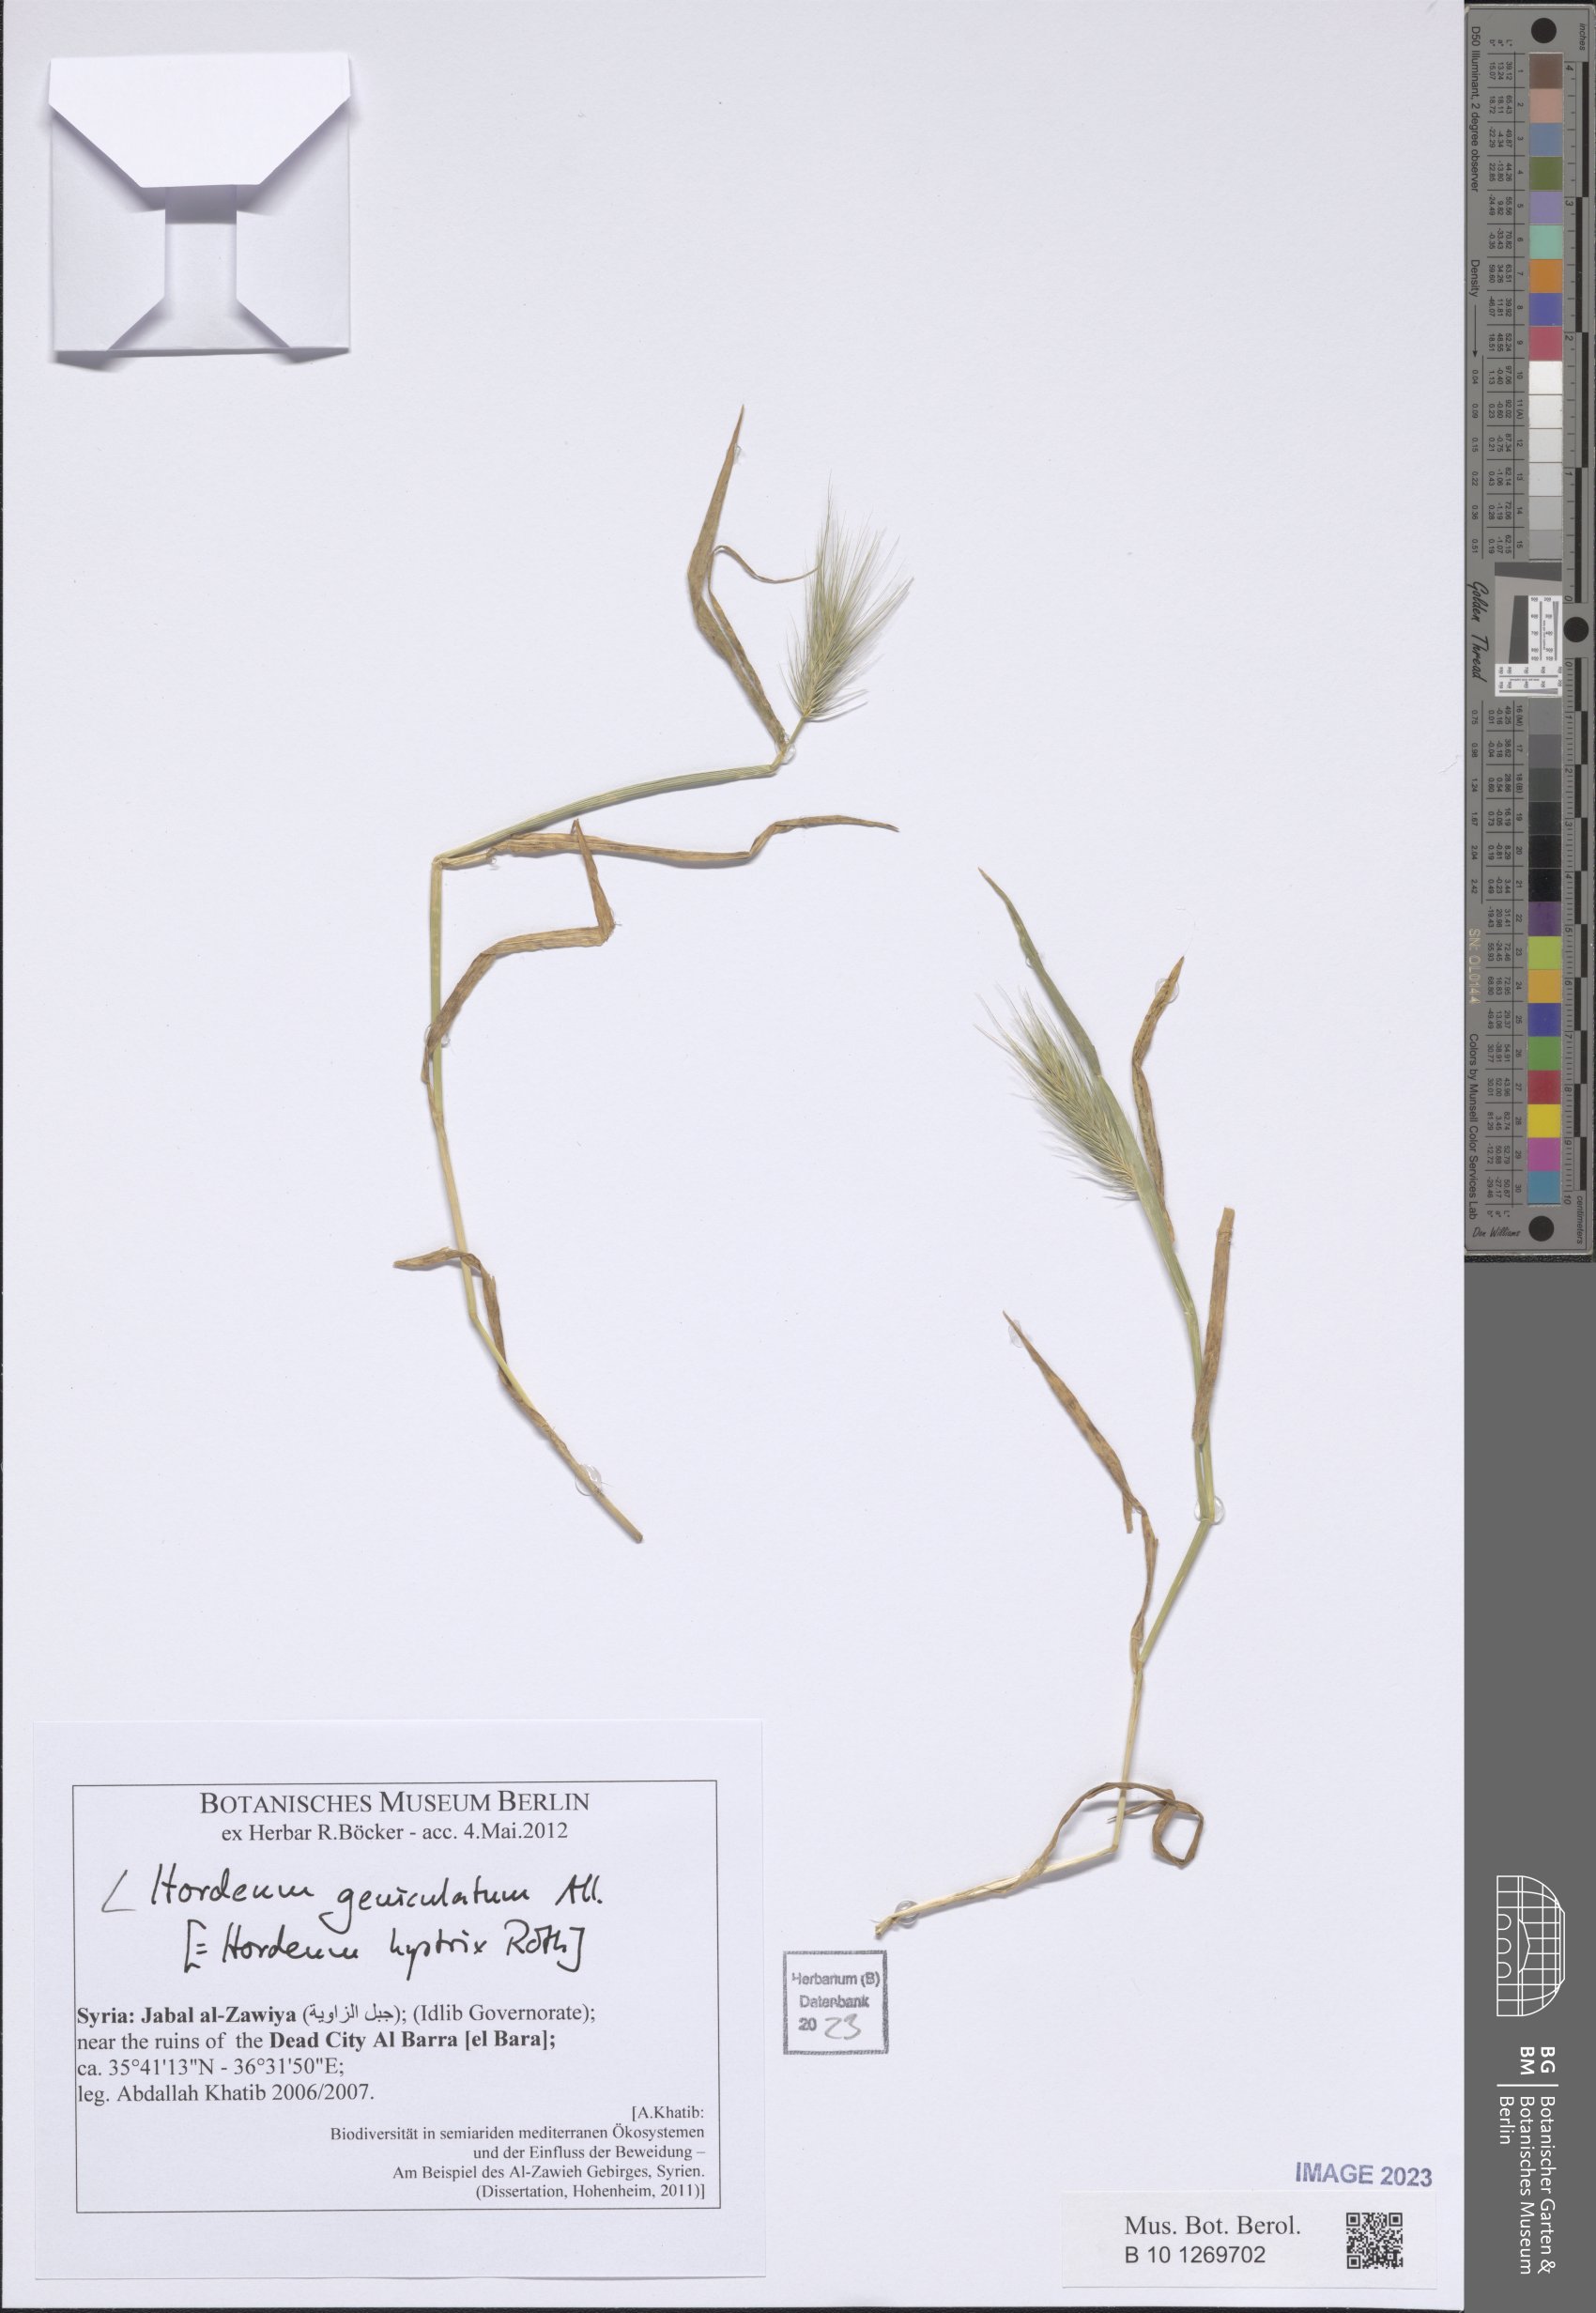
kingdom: Plantae
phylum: Tracheophyta
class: Liliopsida
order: Poales
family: Poaceae
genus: Hordeum
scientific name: Hordeum marinum
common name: Sea barley
